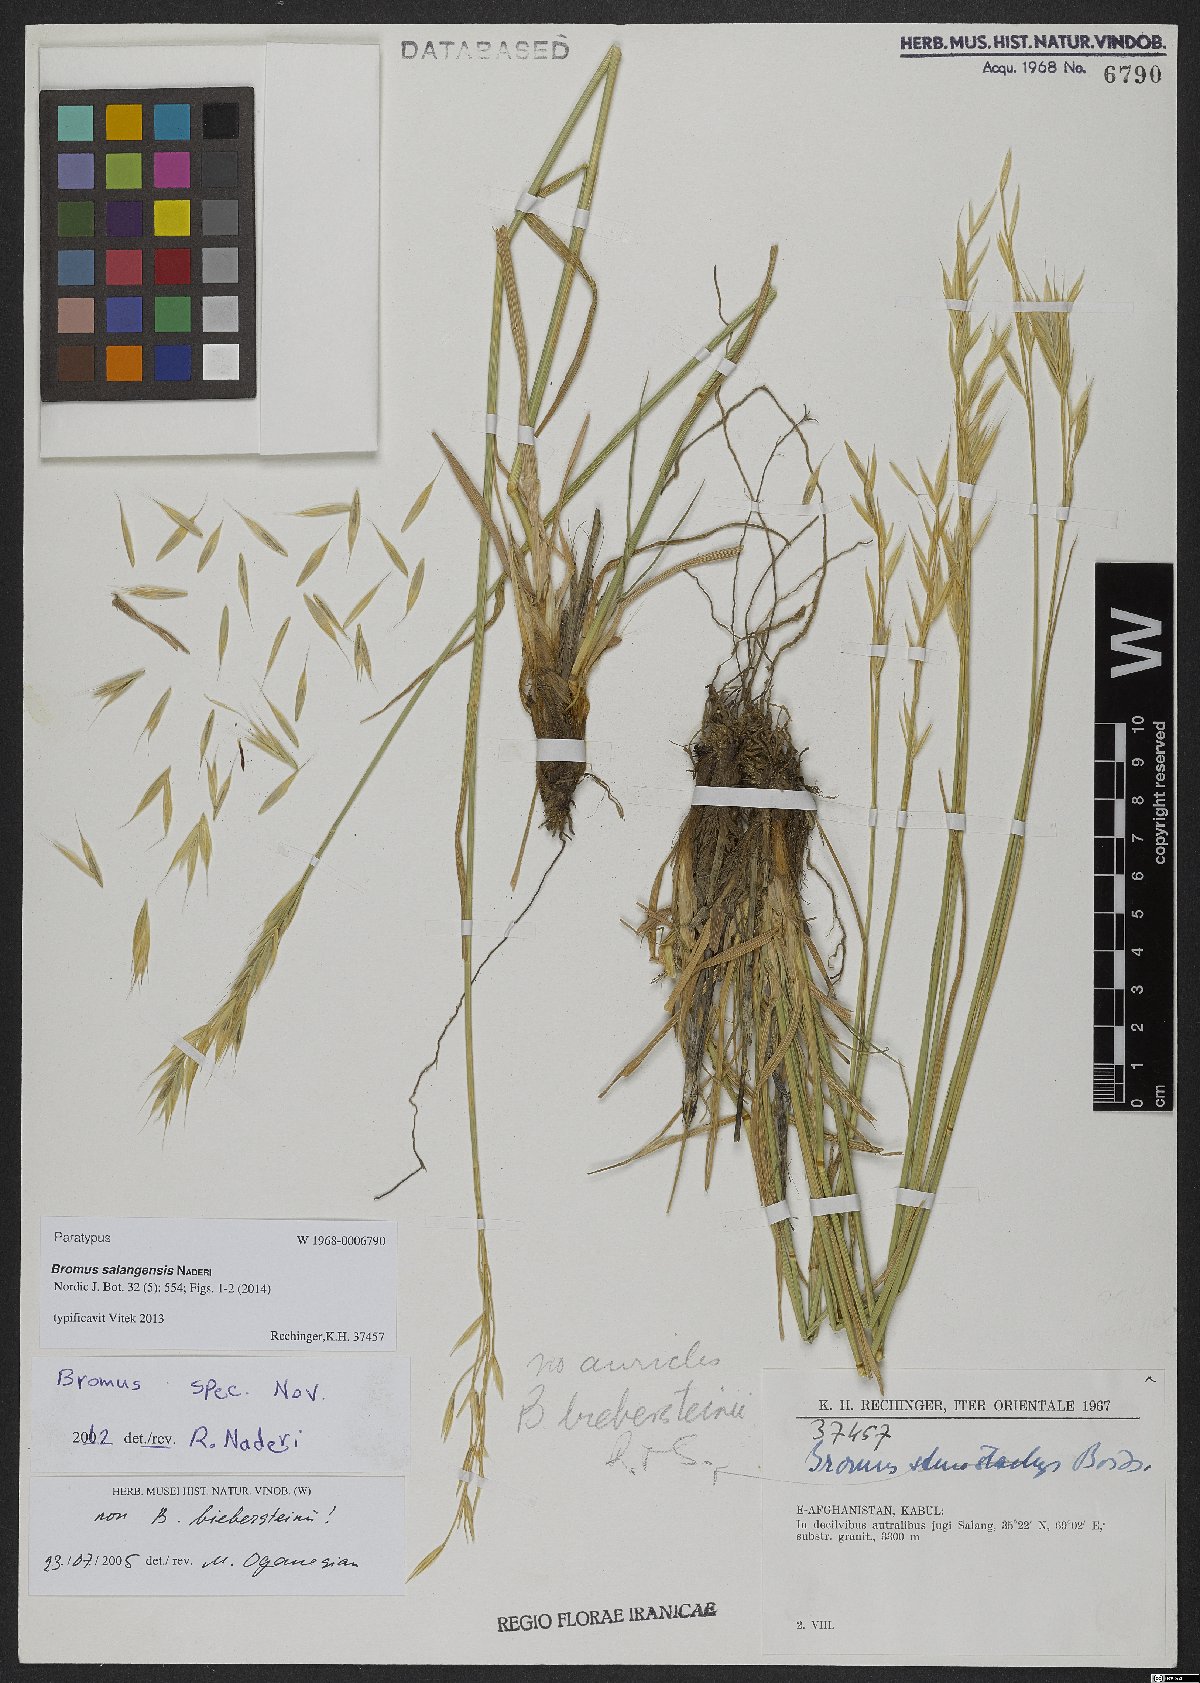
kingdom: Plantae
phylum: Tracheophyta
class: Liliopsida
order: Poales
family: Poaceae
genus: Bromus
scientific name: Bromus salangensis
